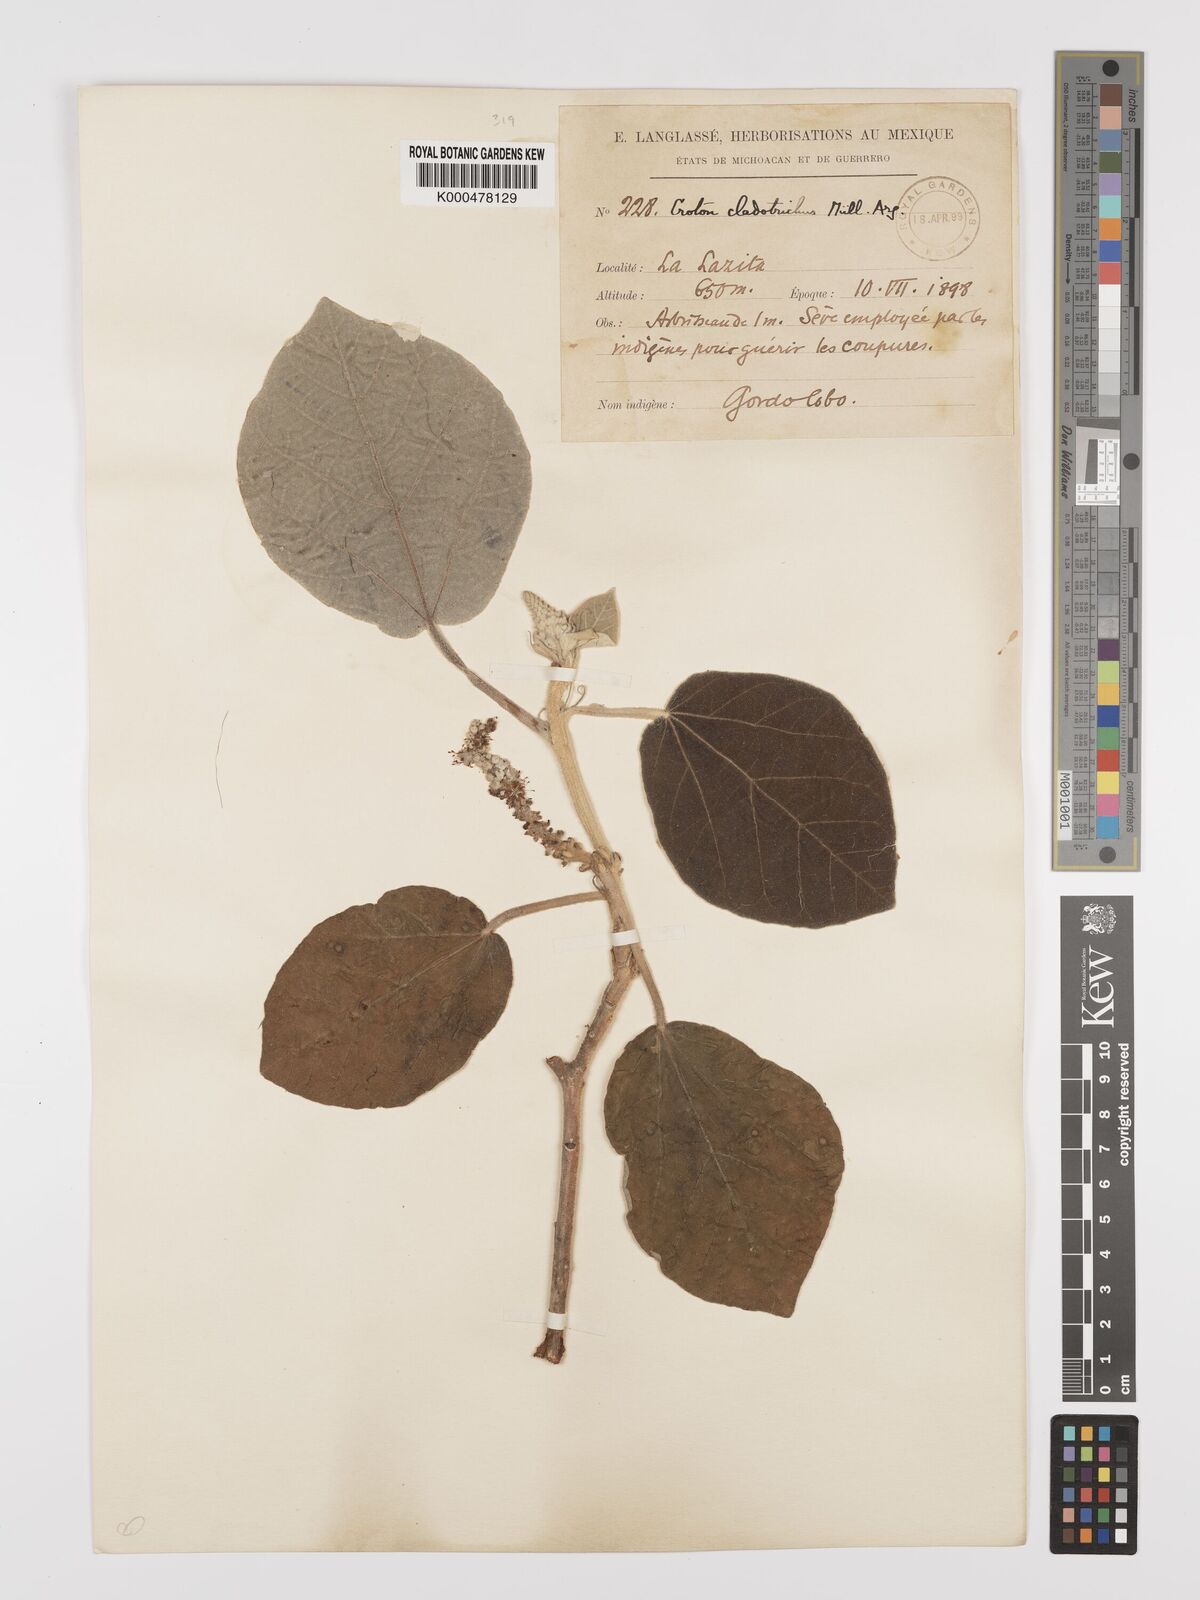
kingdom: Plantae
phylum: Tracheophyta
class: Magnoliopsida
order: Malpighiales
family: Euphorbiaceae
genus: Croton
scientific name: Croton
